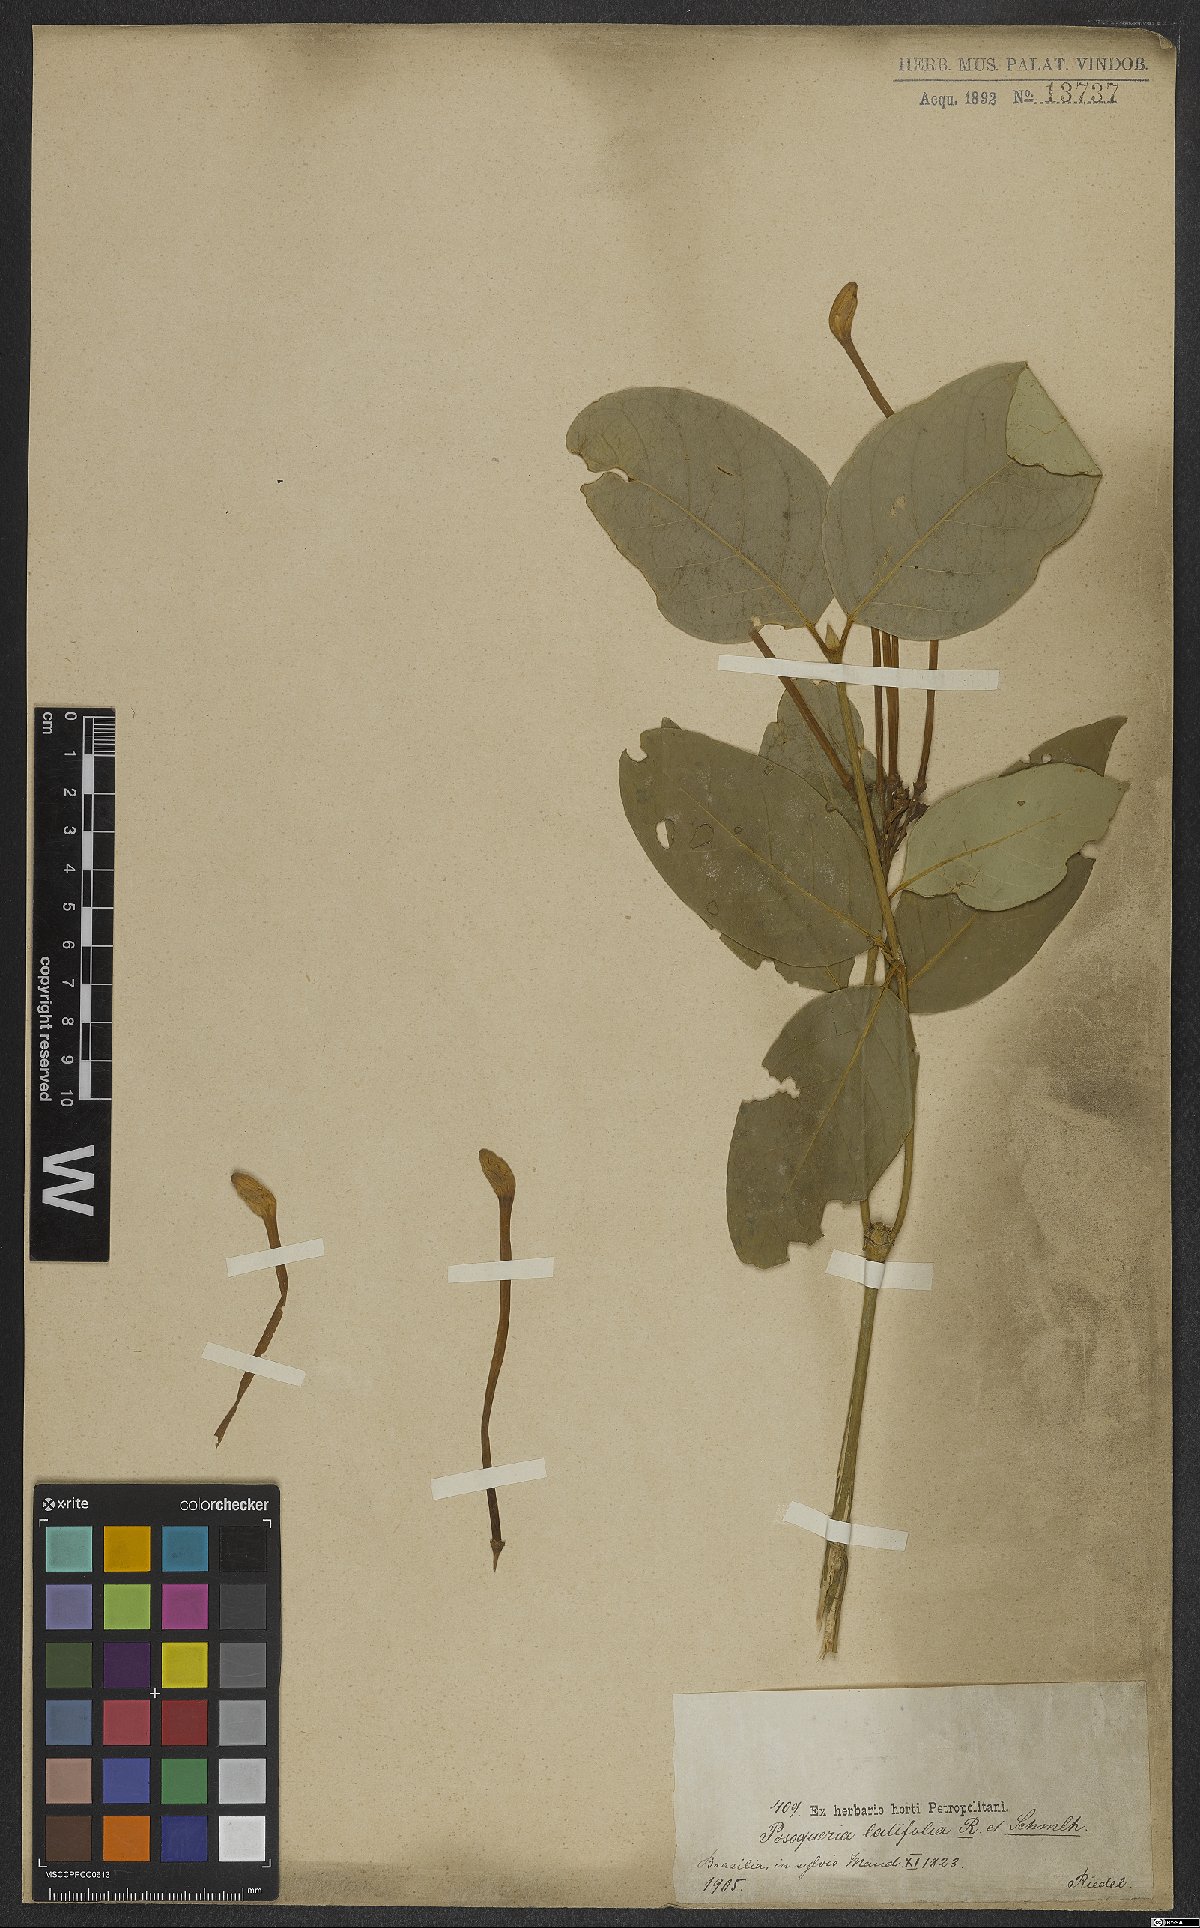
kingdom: Plantae
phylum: Tracheophyta
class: Magnoliopsida
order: Gentianales
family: Rubiaceae
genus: Posoqueria
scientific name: Posoqueria latifolia
